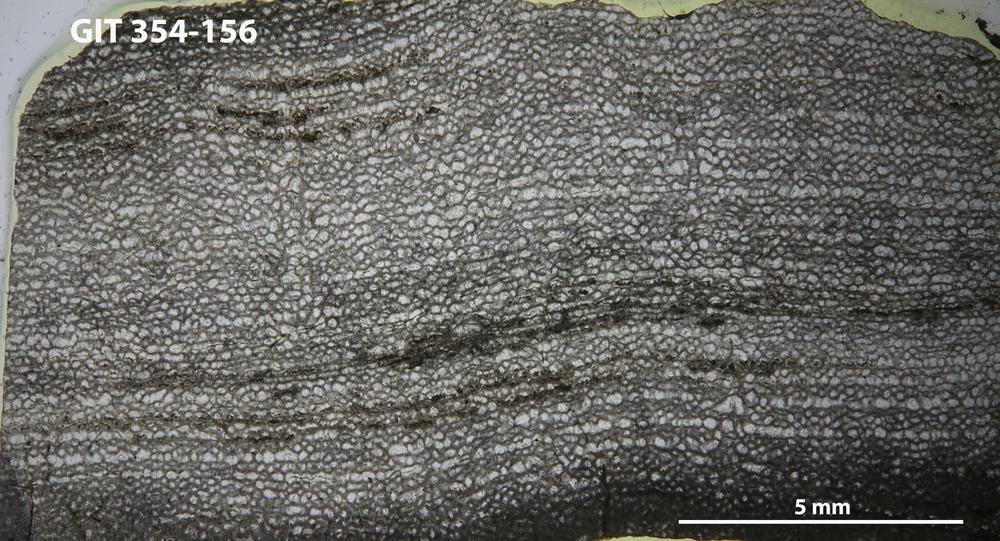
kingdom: Animalia
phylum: Porifera
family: Clathrodictyidae
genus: Clathrodictyon
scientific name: Clathrodictyon boreale
